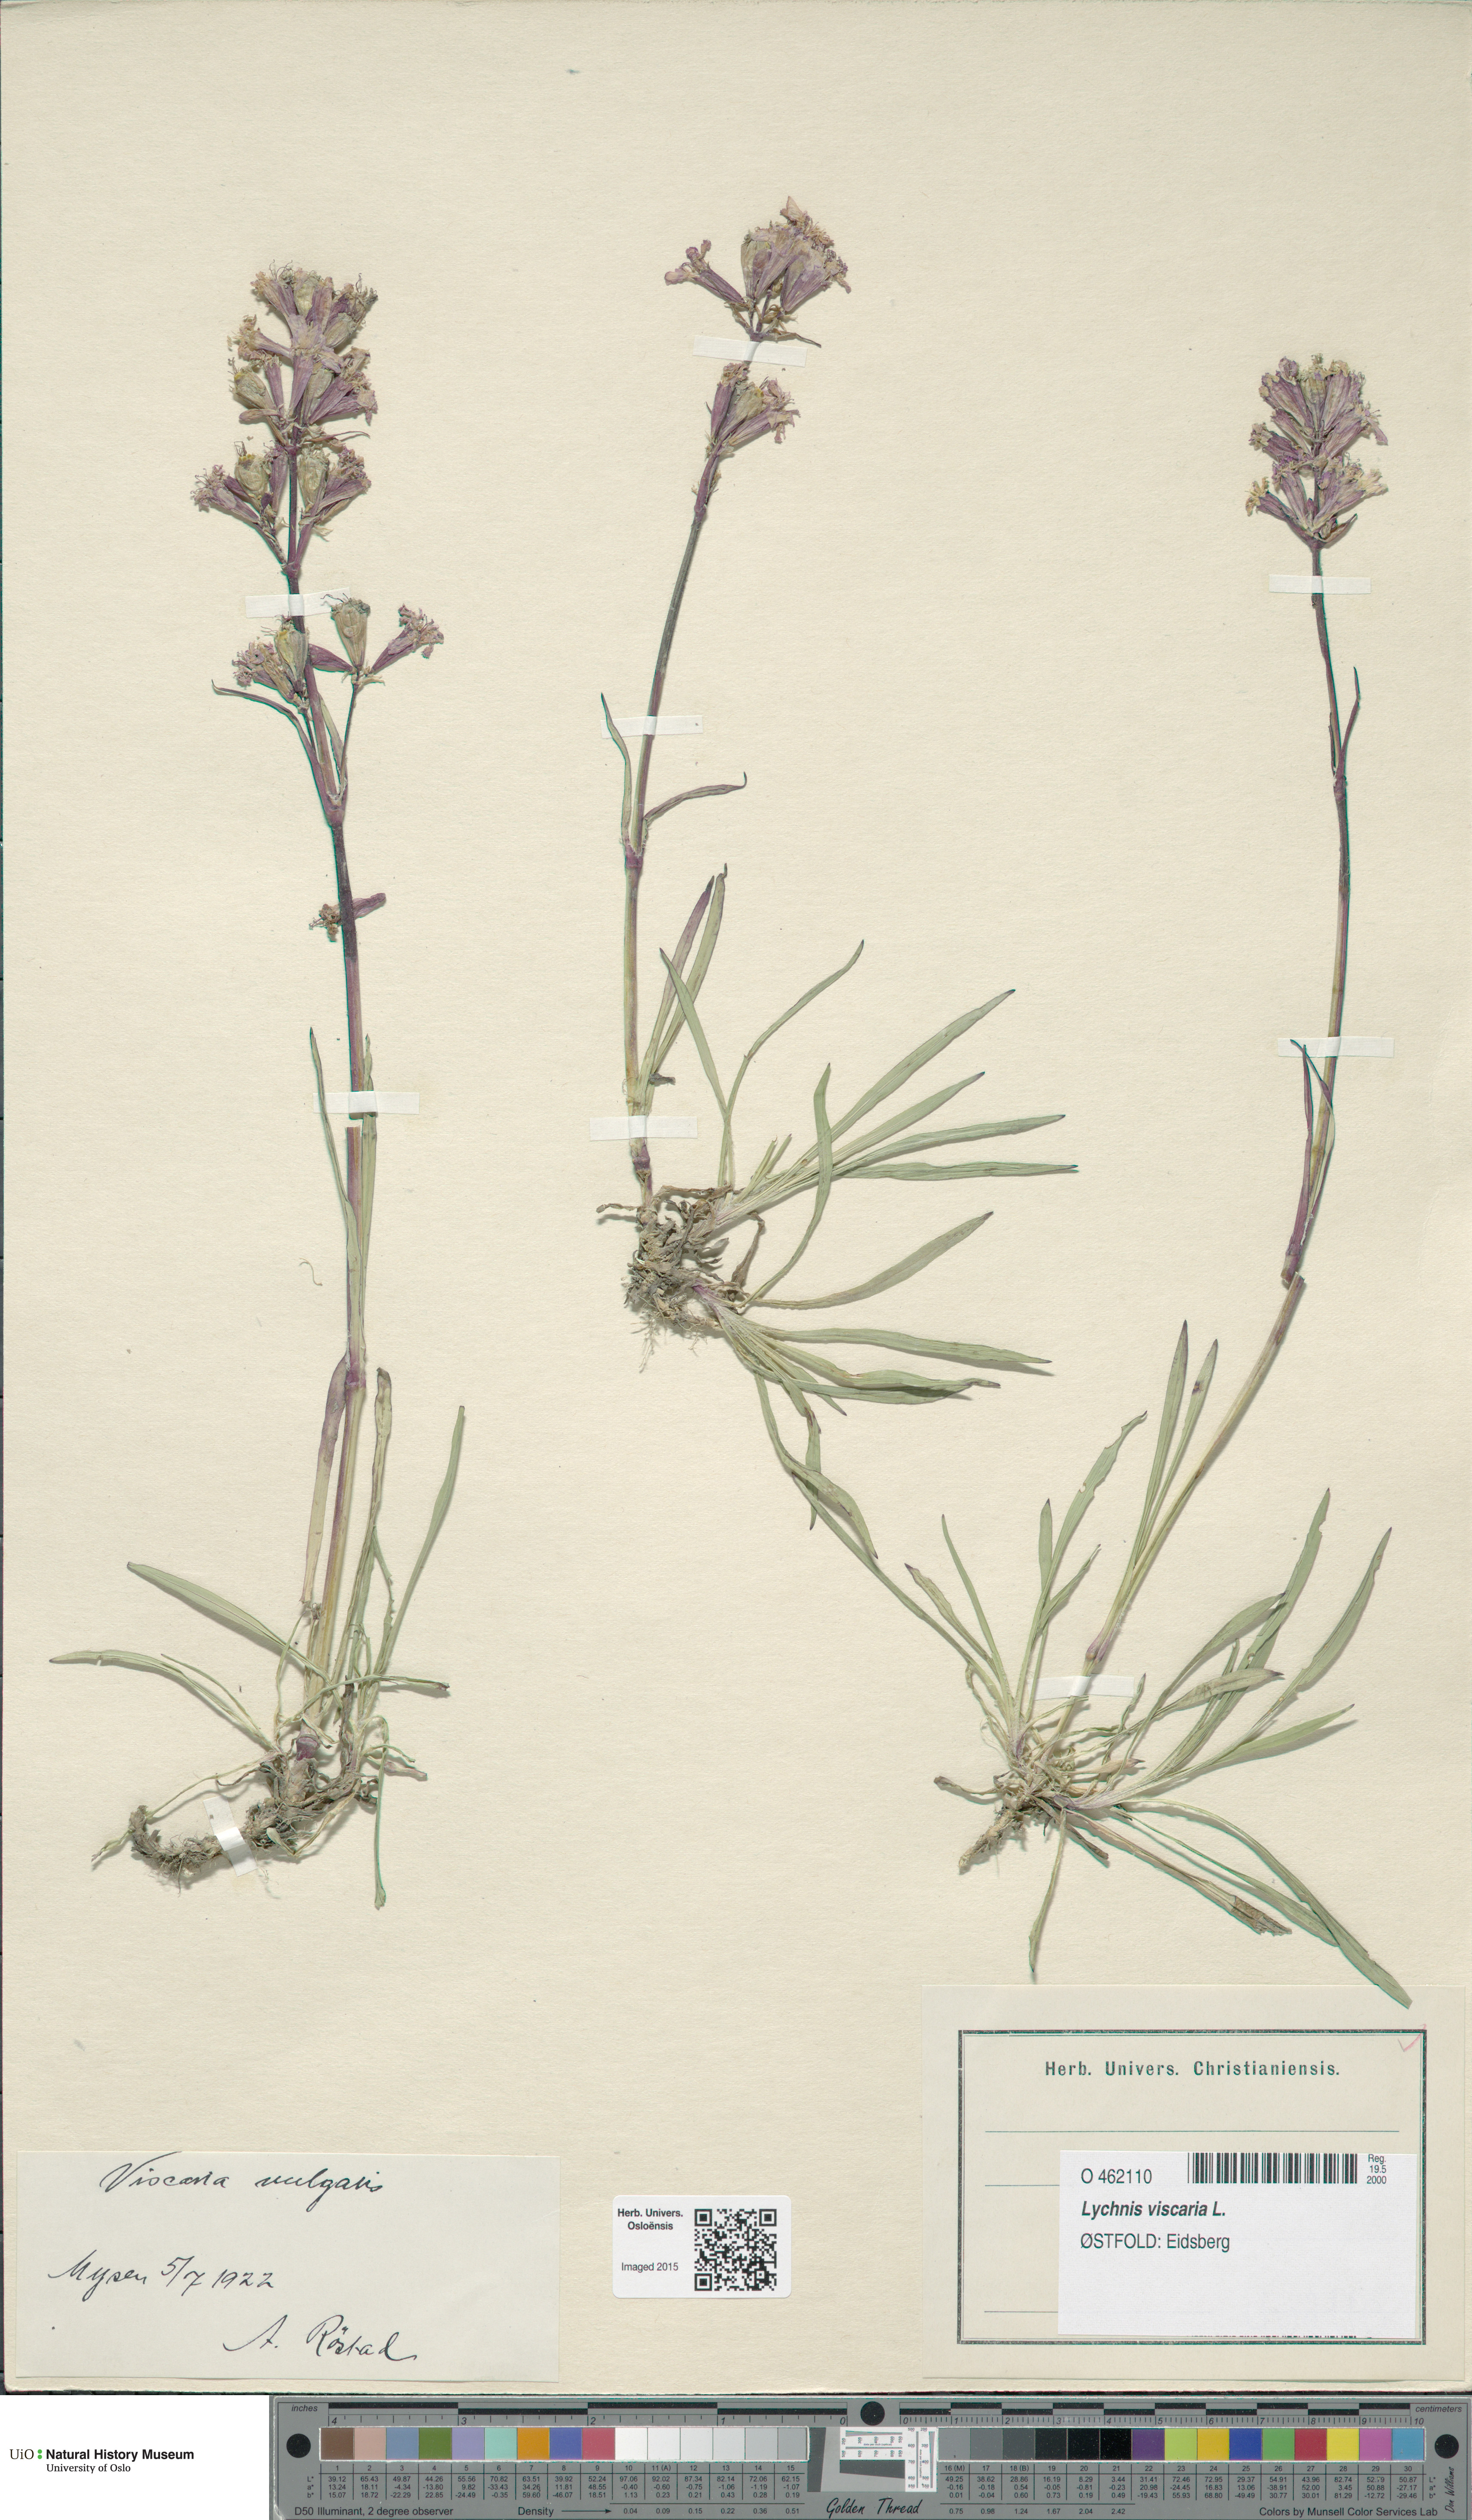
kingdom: Plantae
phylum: Tracheophyta
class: Magnoliopsida
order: Caryophyllales
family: Caryophyllaceae
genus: Viscaria
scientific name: Viscaria vulgaris
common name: Clammy campion
